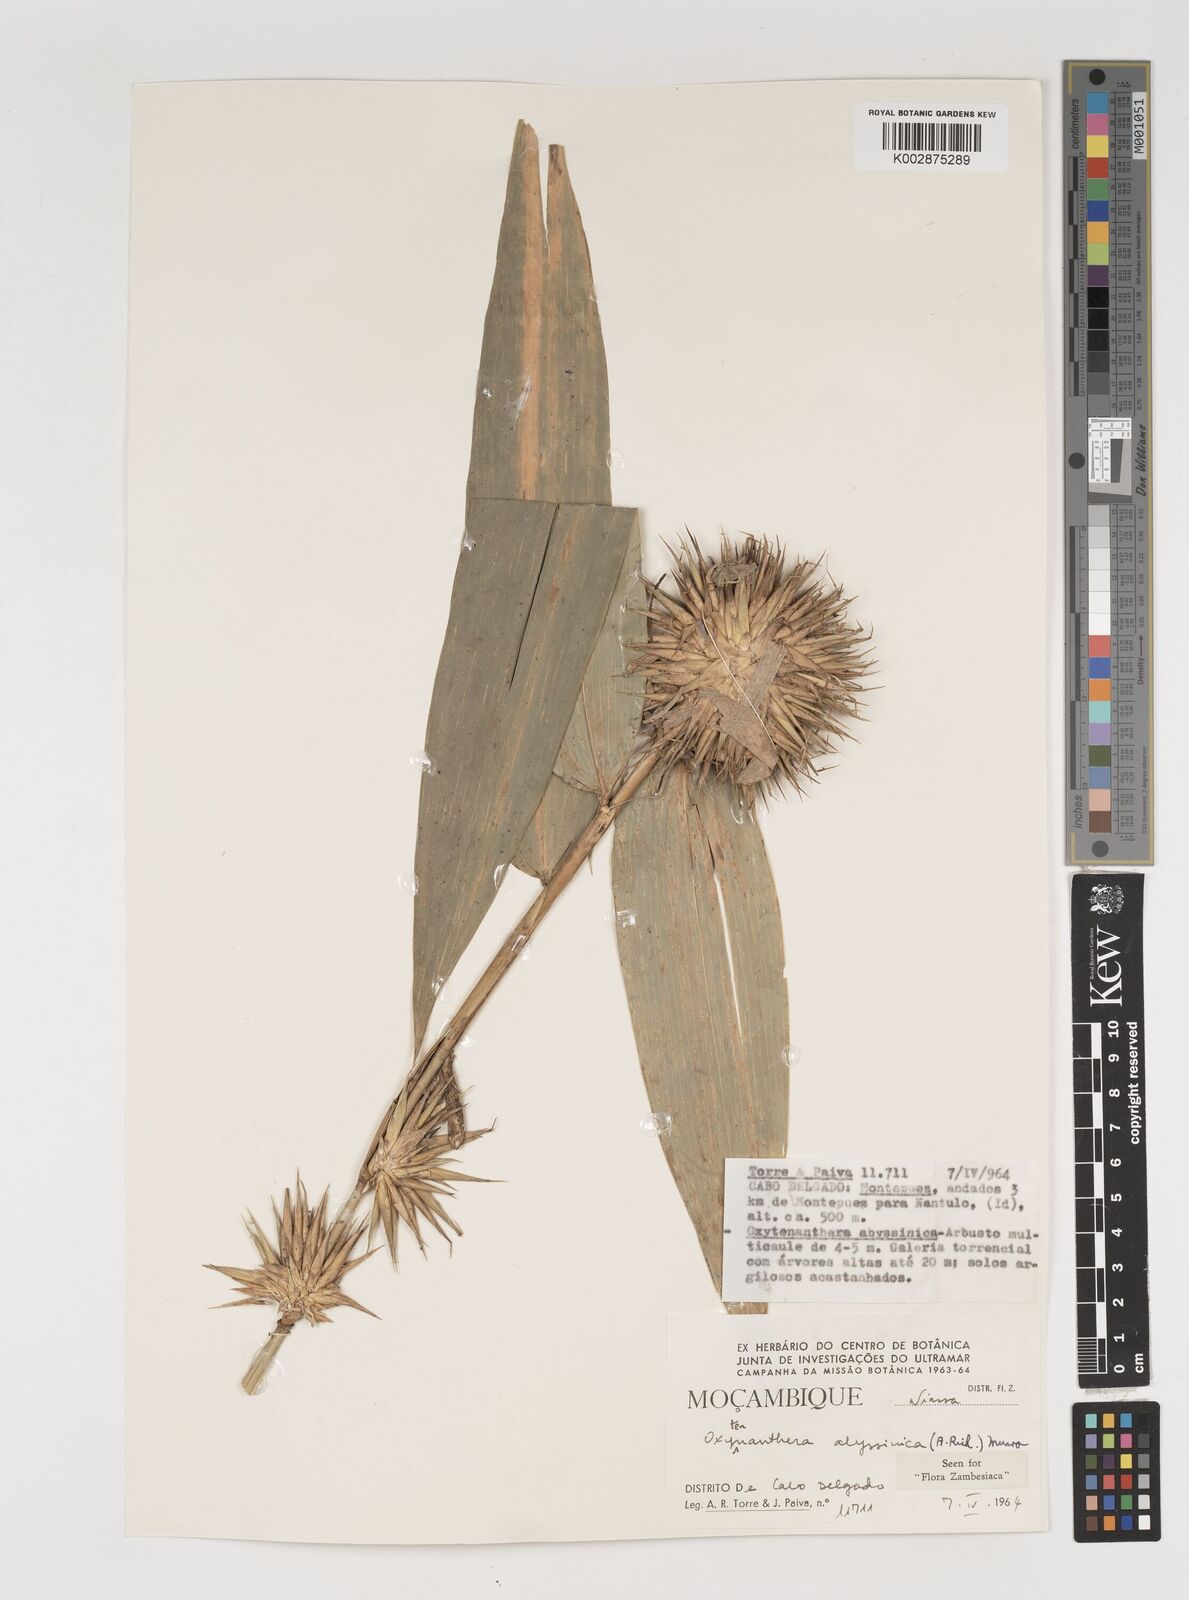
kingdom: Plantae
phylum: Tracheophyta
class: Liliopsida
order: Poales
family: Poaceae
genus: Oxytenanthera
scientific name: Oxytenanthera abyssinica
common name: Wine bamboo
